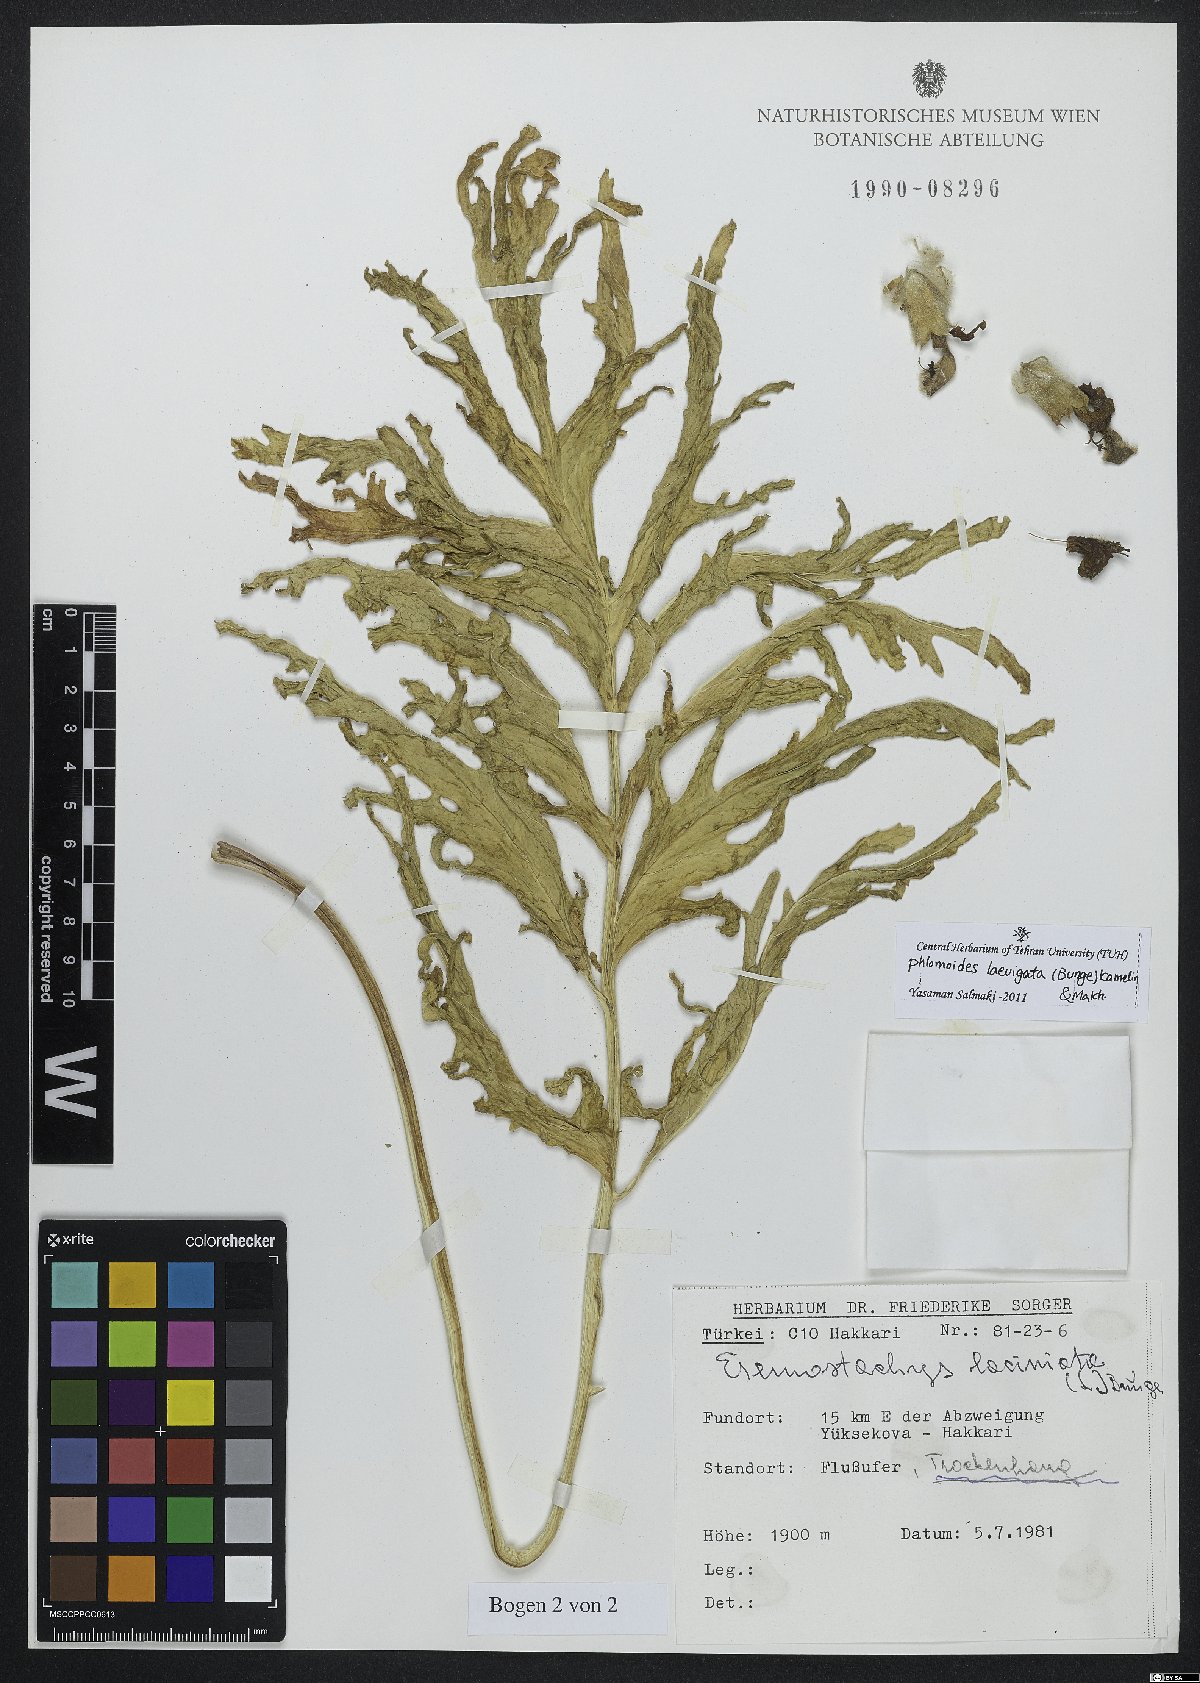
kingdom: Plantae
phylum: Tracheophyta
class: Magnoliopsida
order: Lamiales
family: Lamiaceae
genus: Phlomoides
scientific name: Phlomoides laevigata
